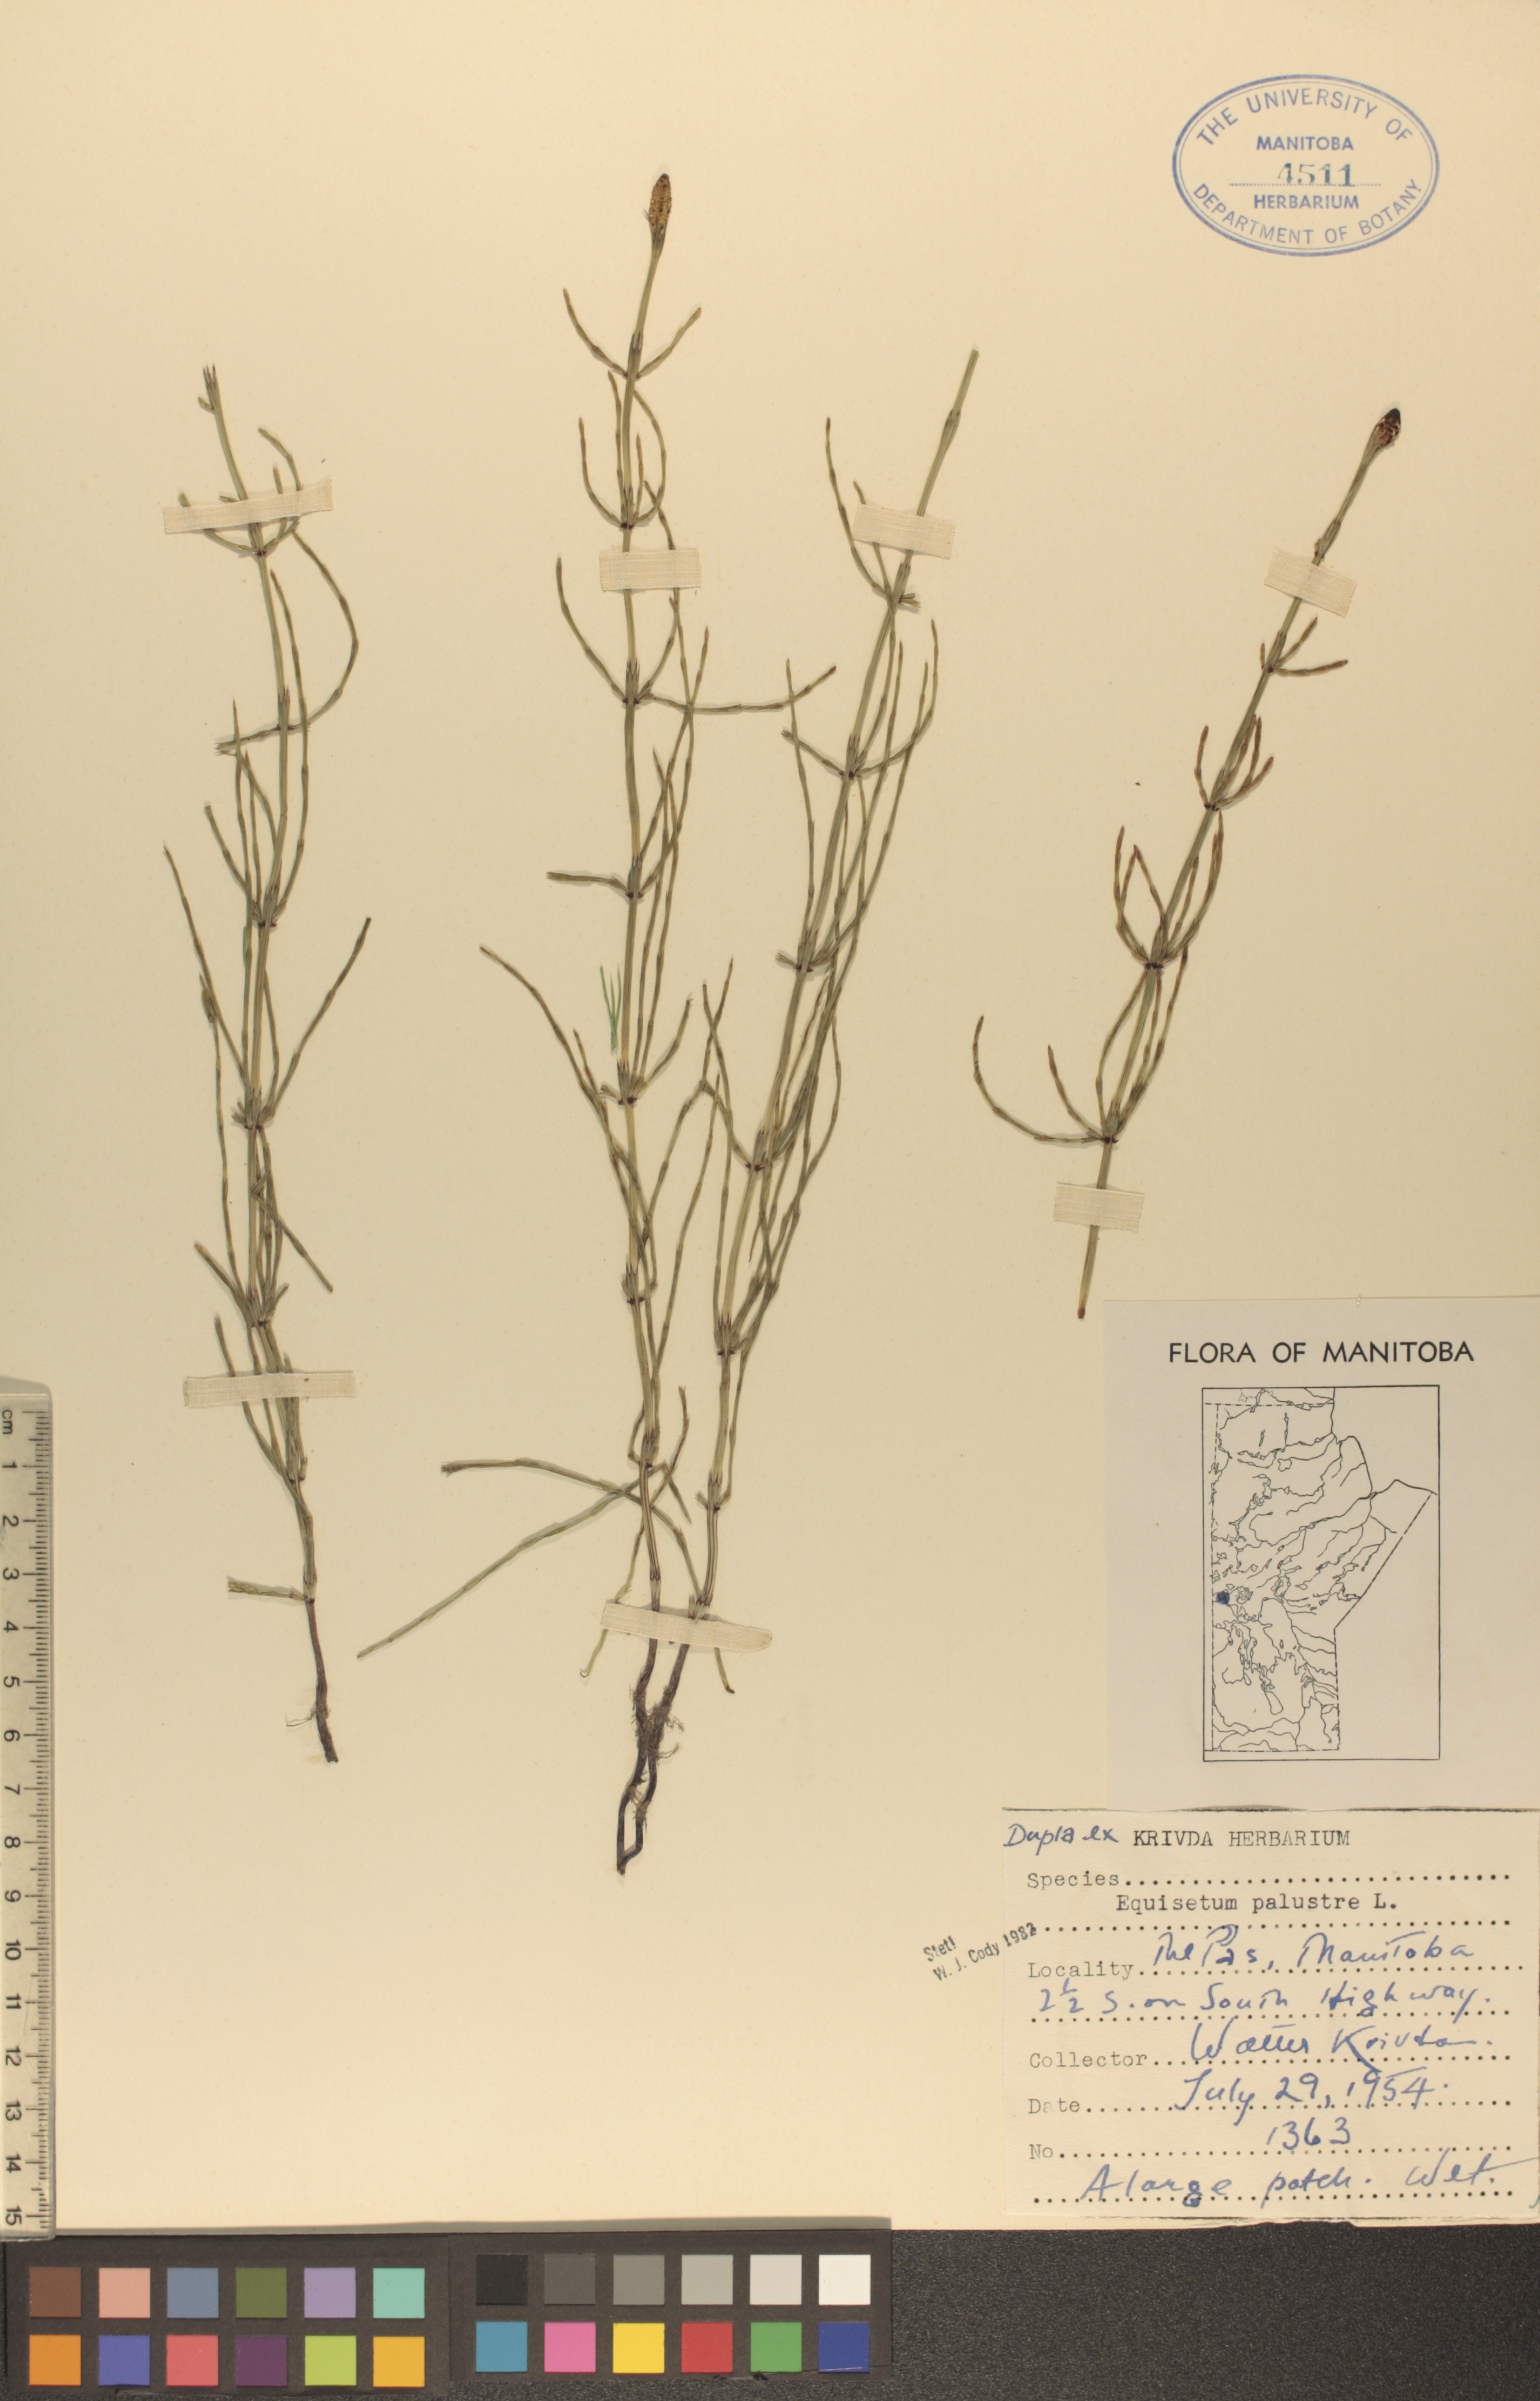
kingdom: Plantae
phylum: Tracheophyta
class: Polypodiopsida
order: Equisetales
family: Equisetaceae
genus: Equisetum
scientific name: Equisetum palustre
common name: Marsh horsetail
